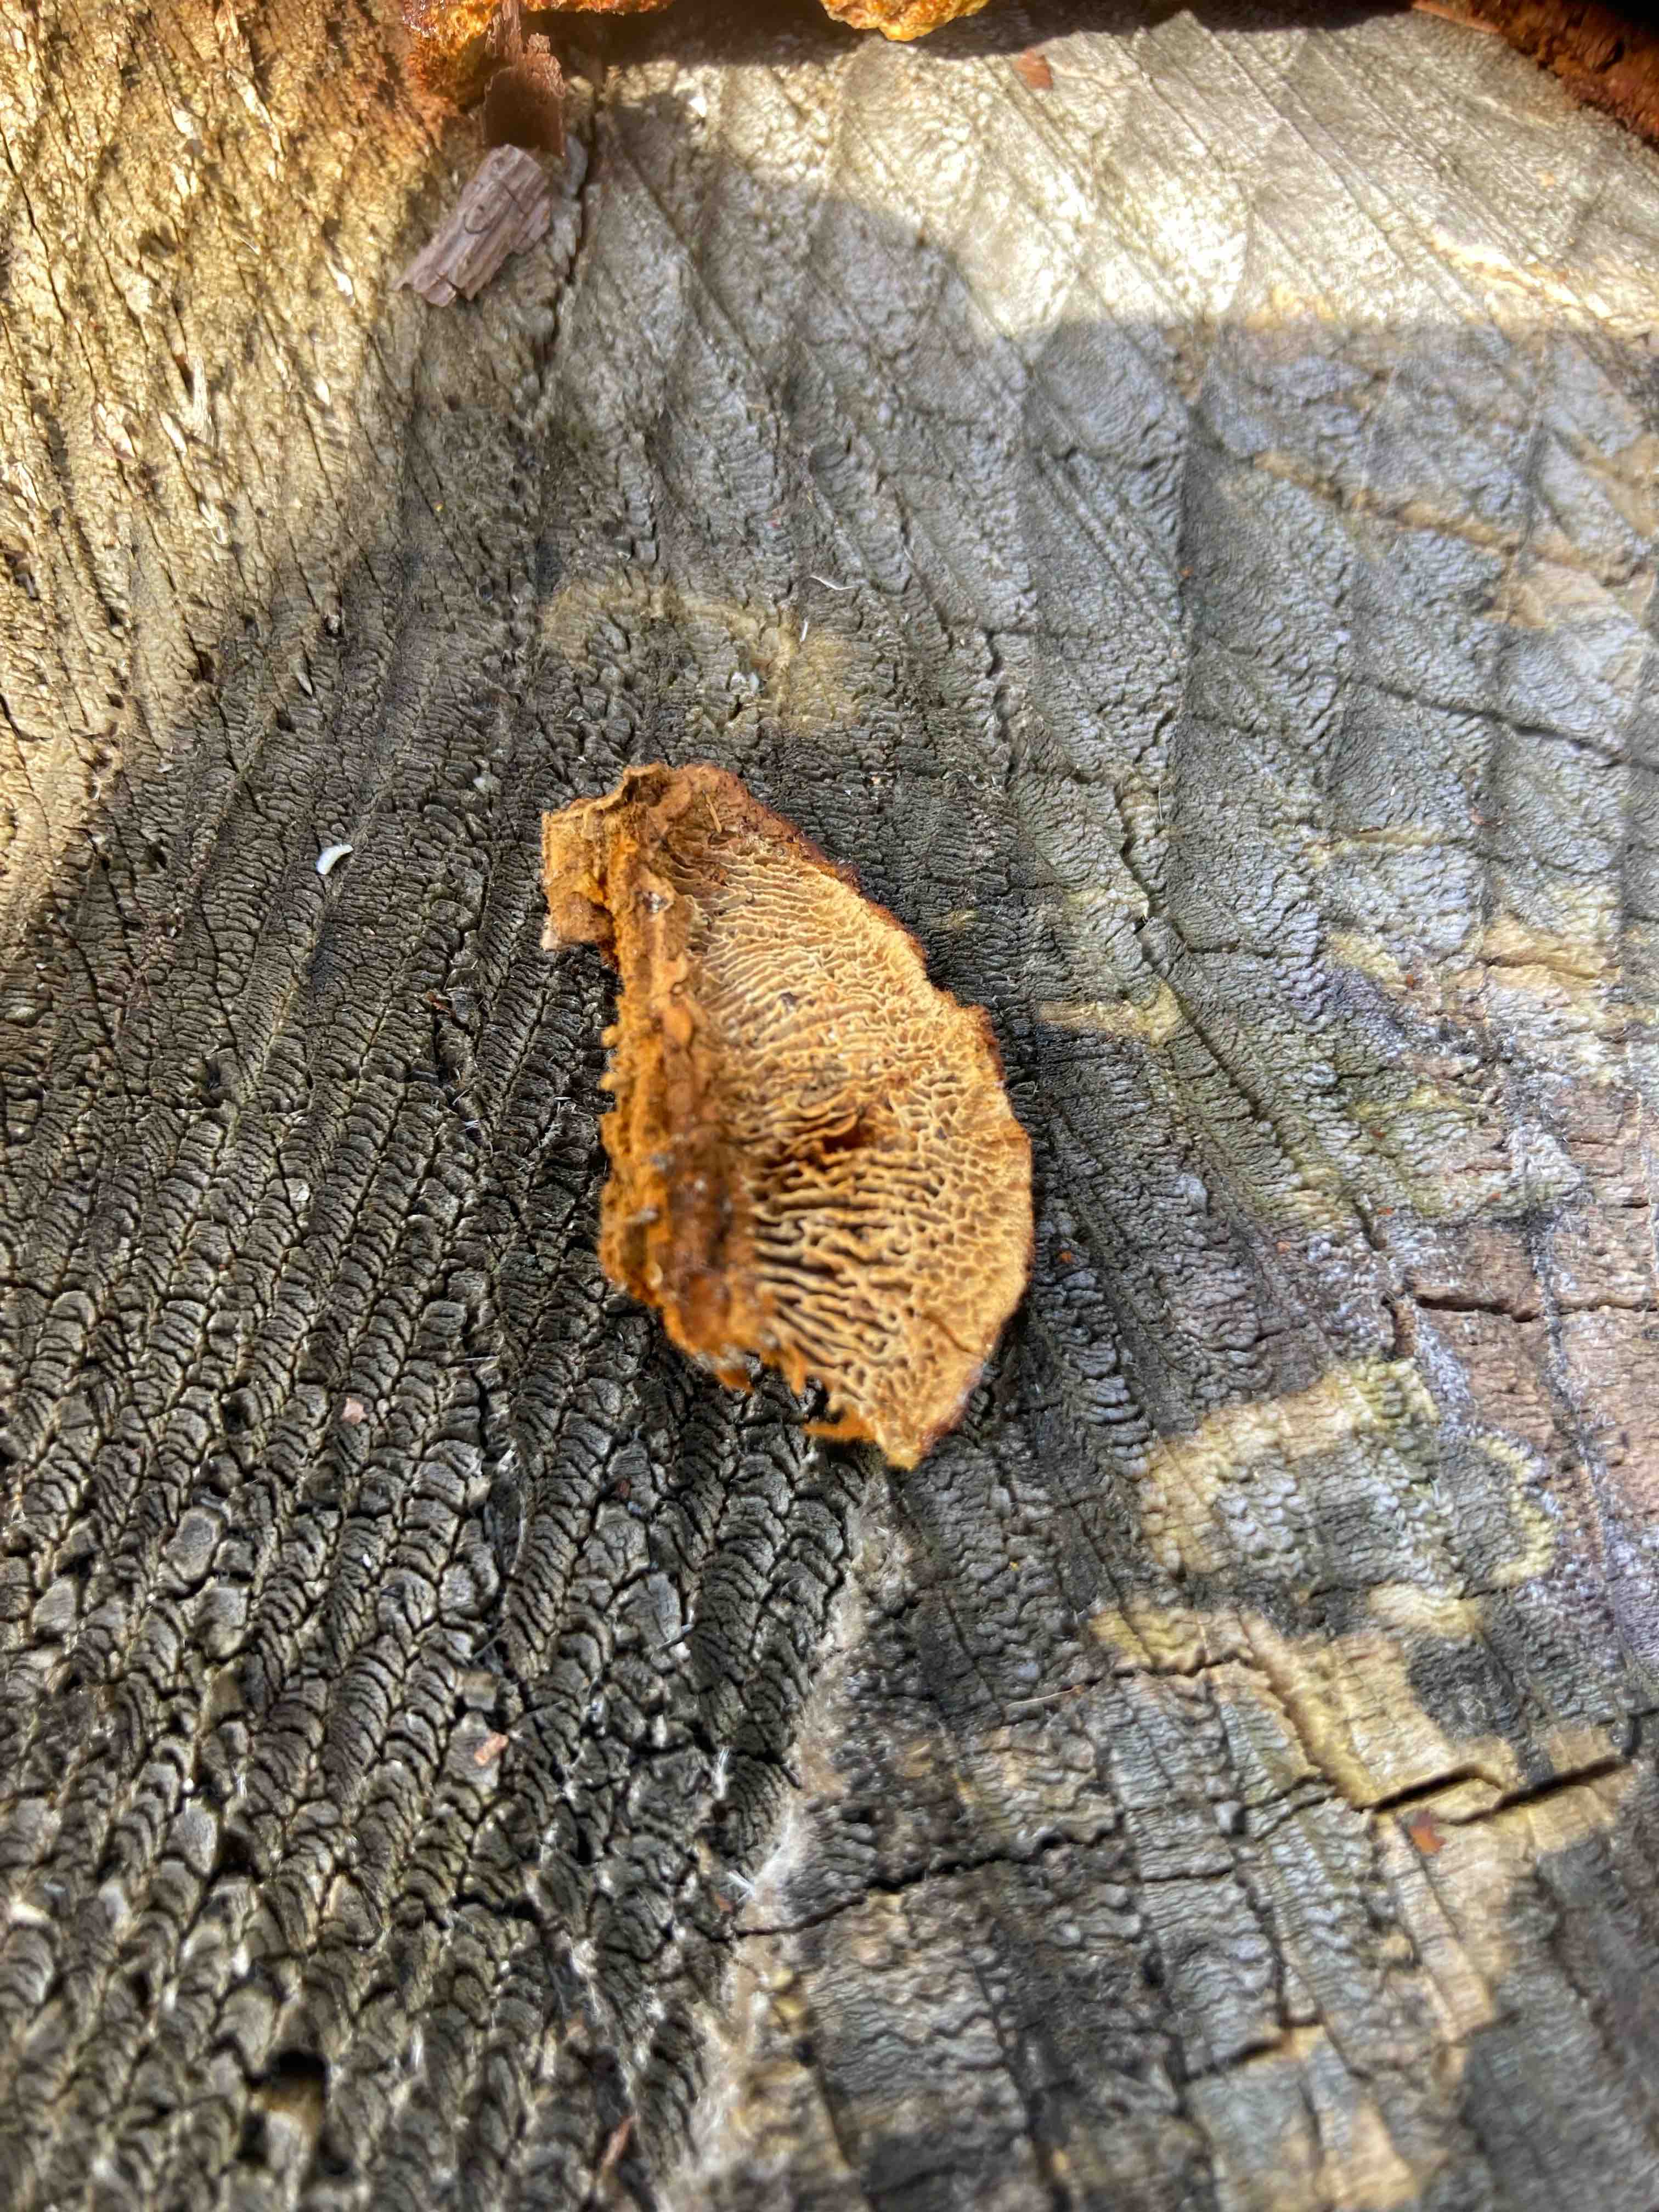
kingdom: Fungi
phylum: Basidiomycota
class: Agaricomycetes
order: Gloeophyllales
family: Gloeophyllaceae
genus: Gloeophyllum
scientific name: Gloeophyllum sepiarium
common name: fyrre-korkhat
